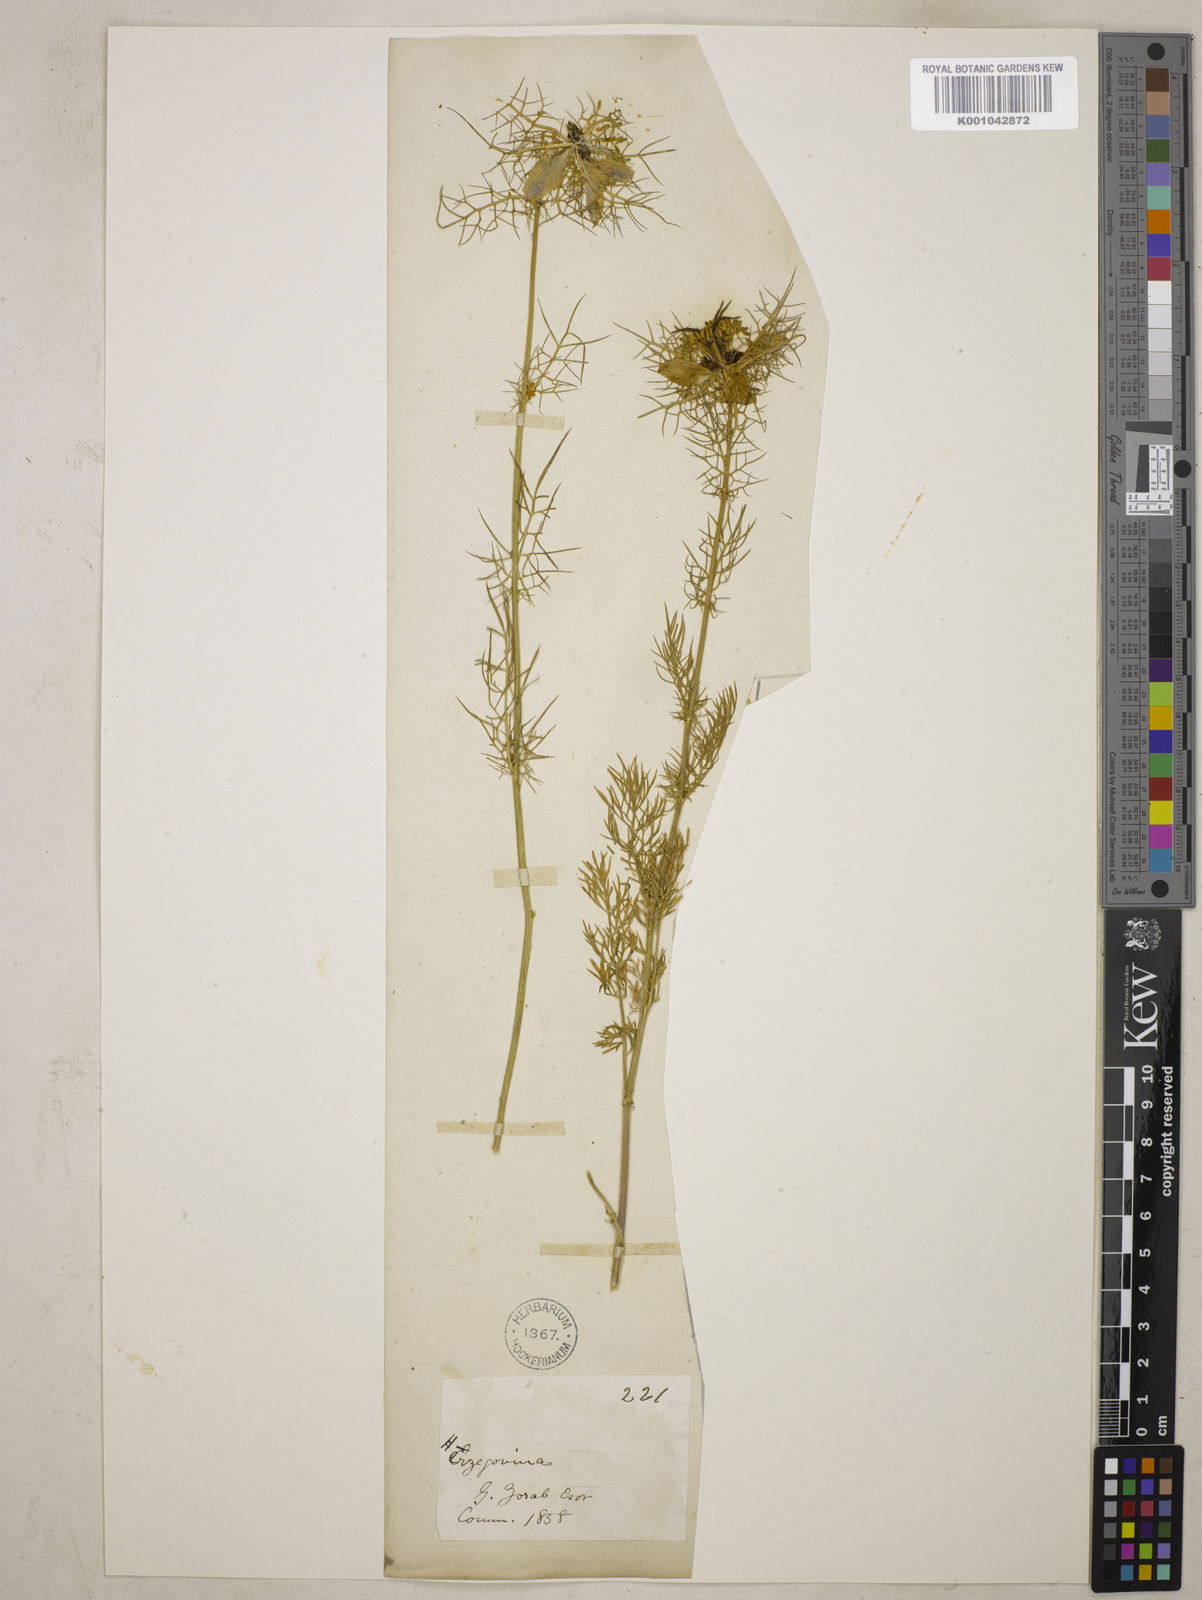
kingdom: Plantae
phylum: Tracheophyta
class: Magnoliopsida
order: Ranunculales
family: Ranunculaceae
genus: Nigella
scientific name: Nigella damascena
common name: Love-in-a-mist
